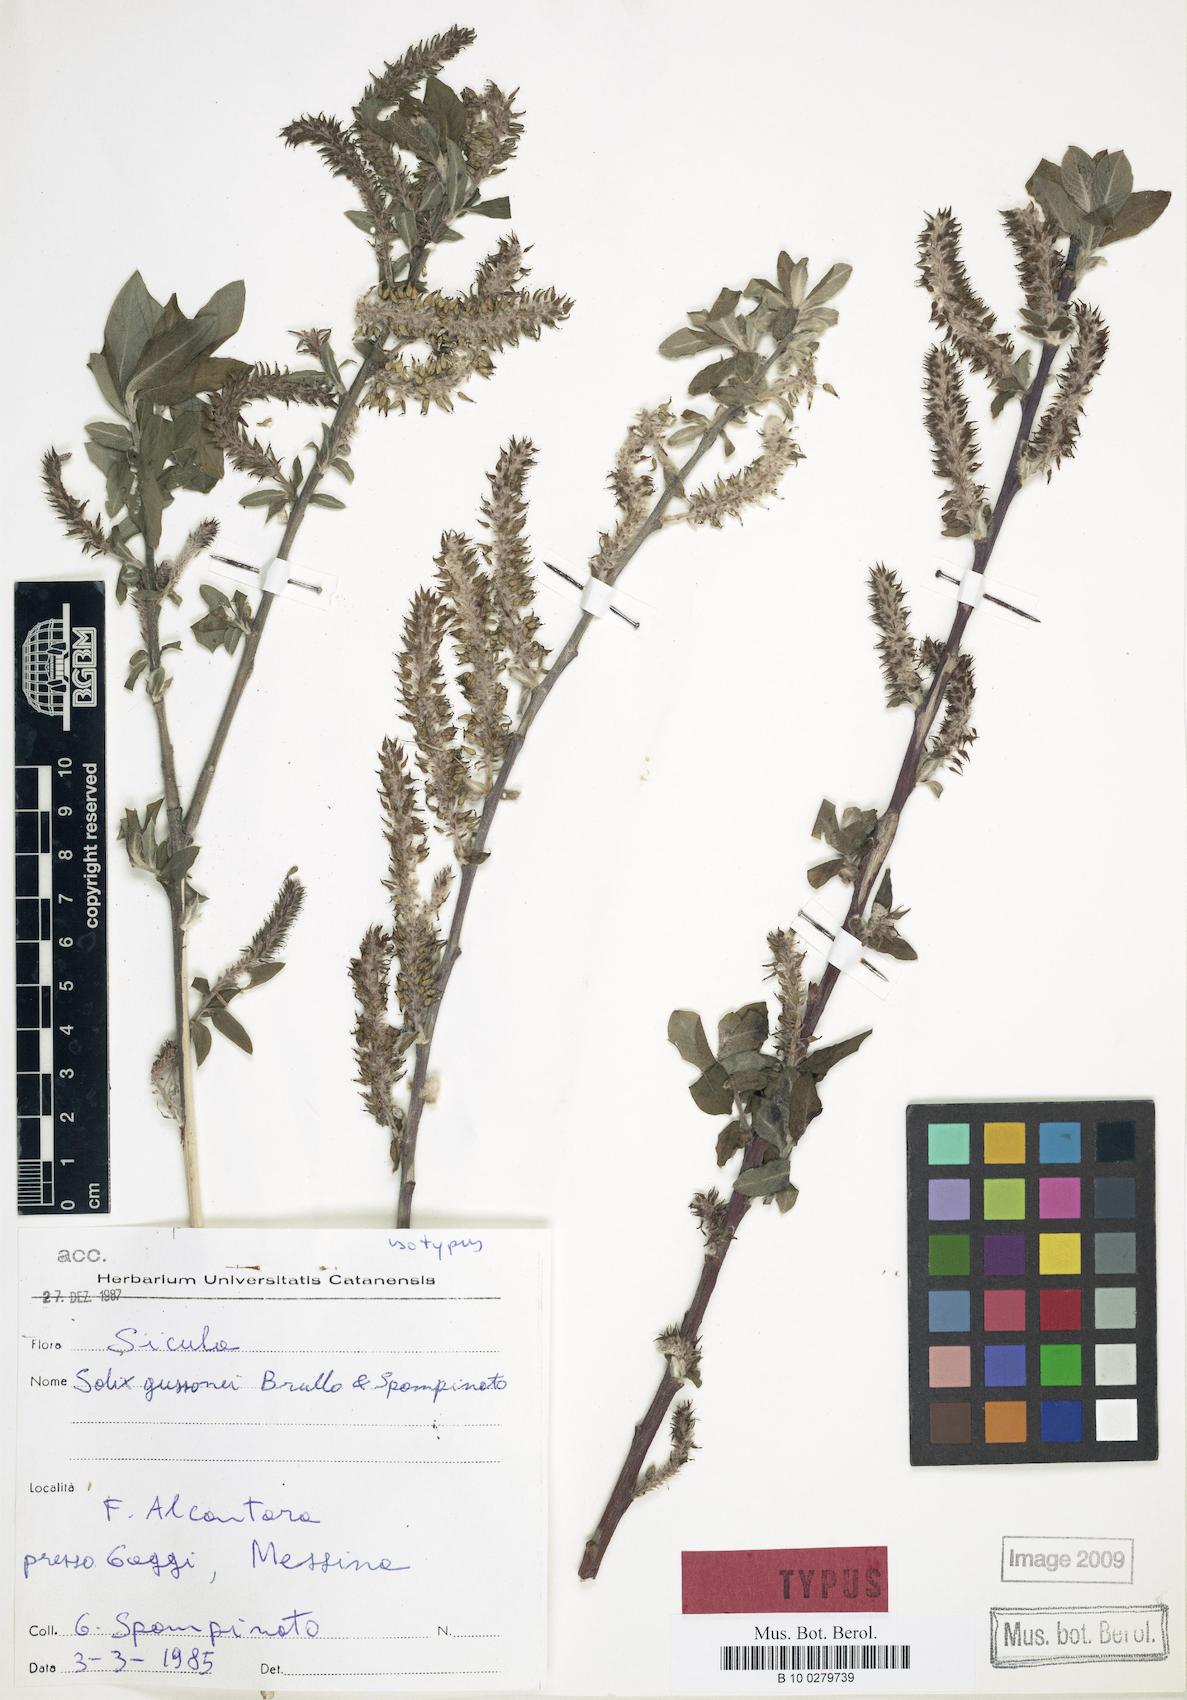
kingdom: Plantae
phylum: Tracheophyta
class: Magnoliopsida
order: Malpighiales
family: Salicaceae
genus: Salix
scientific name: Salix gussonei
